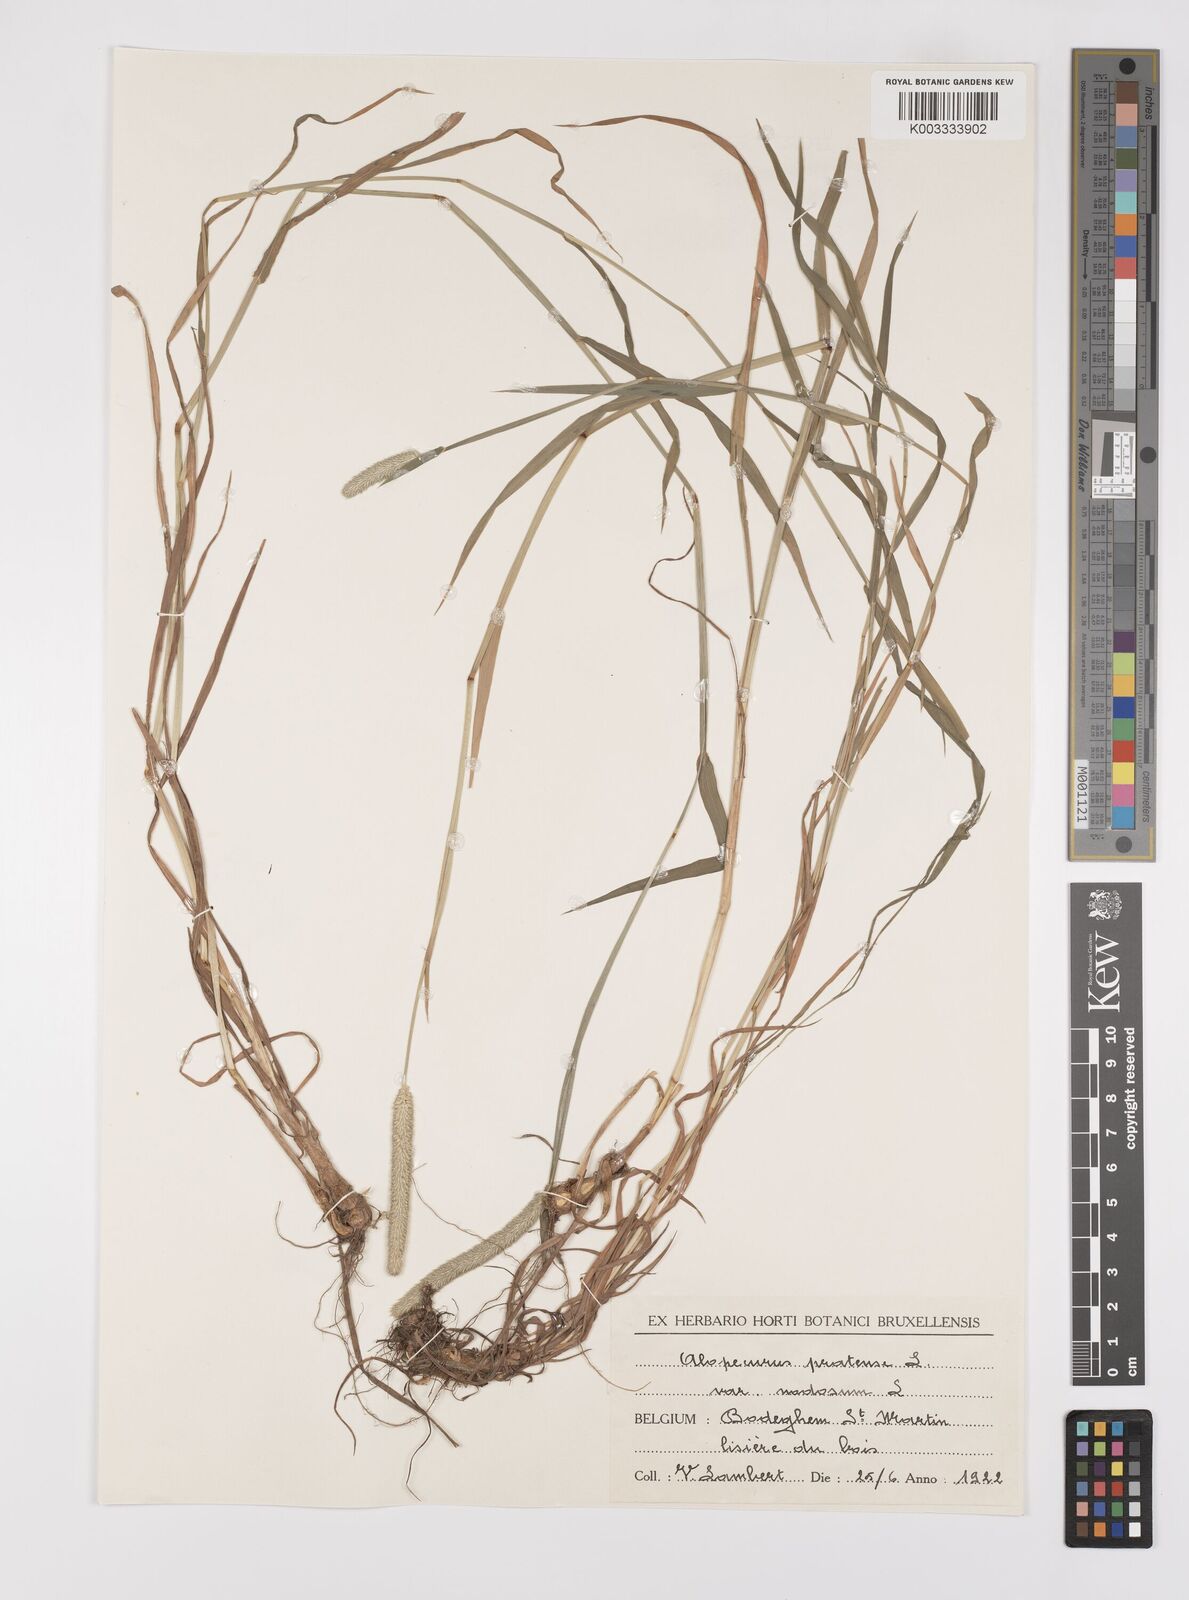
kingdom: Plantae
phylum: Tracheophyta
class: Liliopsida
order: Poales
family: Poaceae
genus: Alopecurus
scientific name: Alopecurus pratensis
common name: Meadow foxtail
